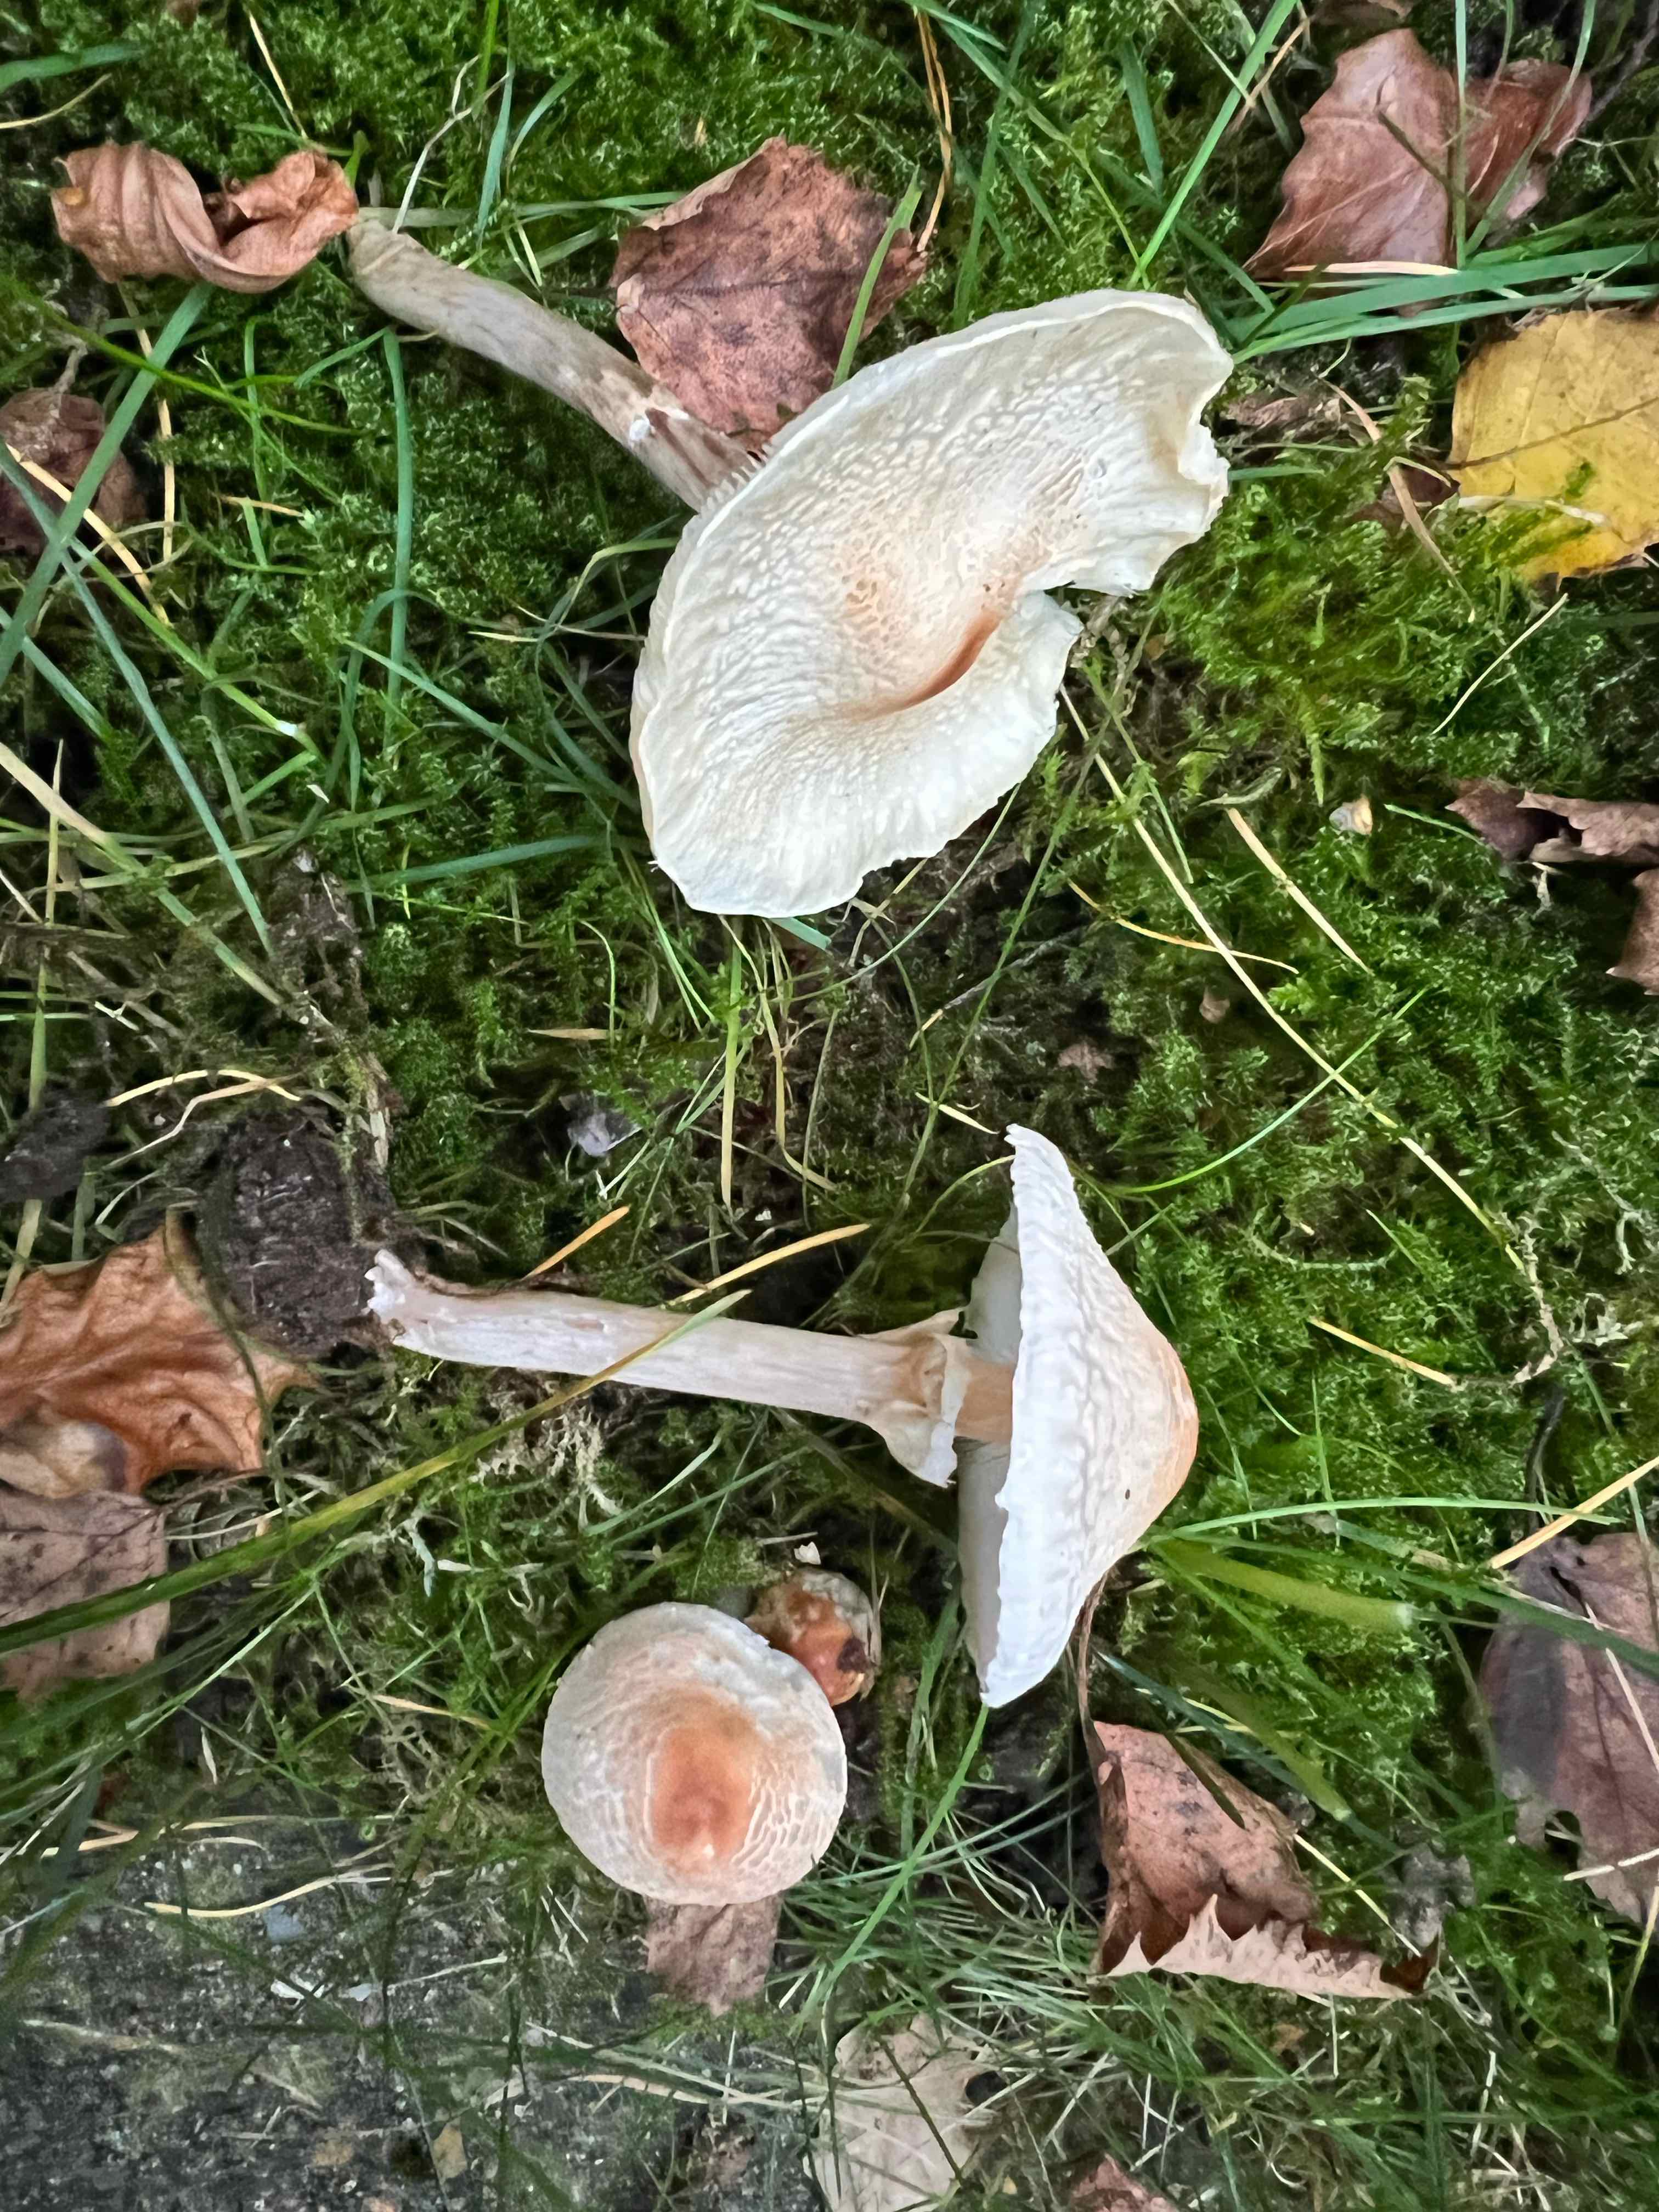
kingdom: Fungi
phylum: Basidiomycota
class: Agaricomycetes
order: Agaricales
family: Agaricaceae
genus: Lepiota
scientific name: Lepiota cristata
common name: stinkende parasolhat
